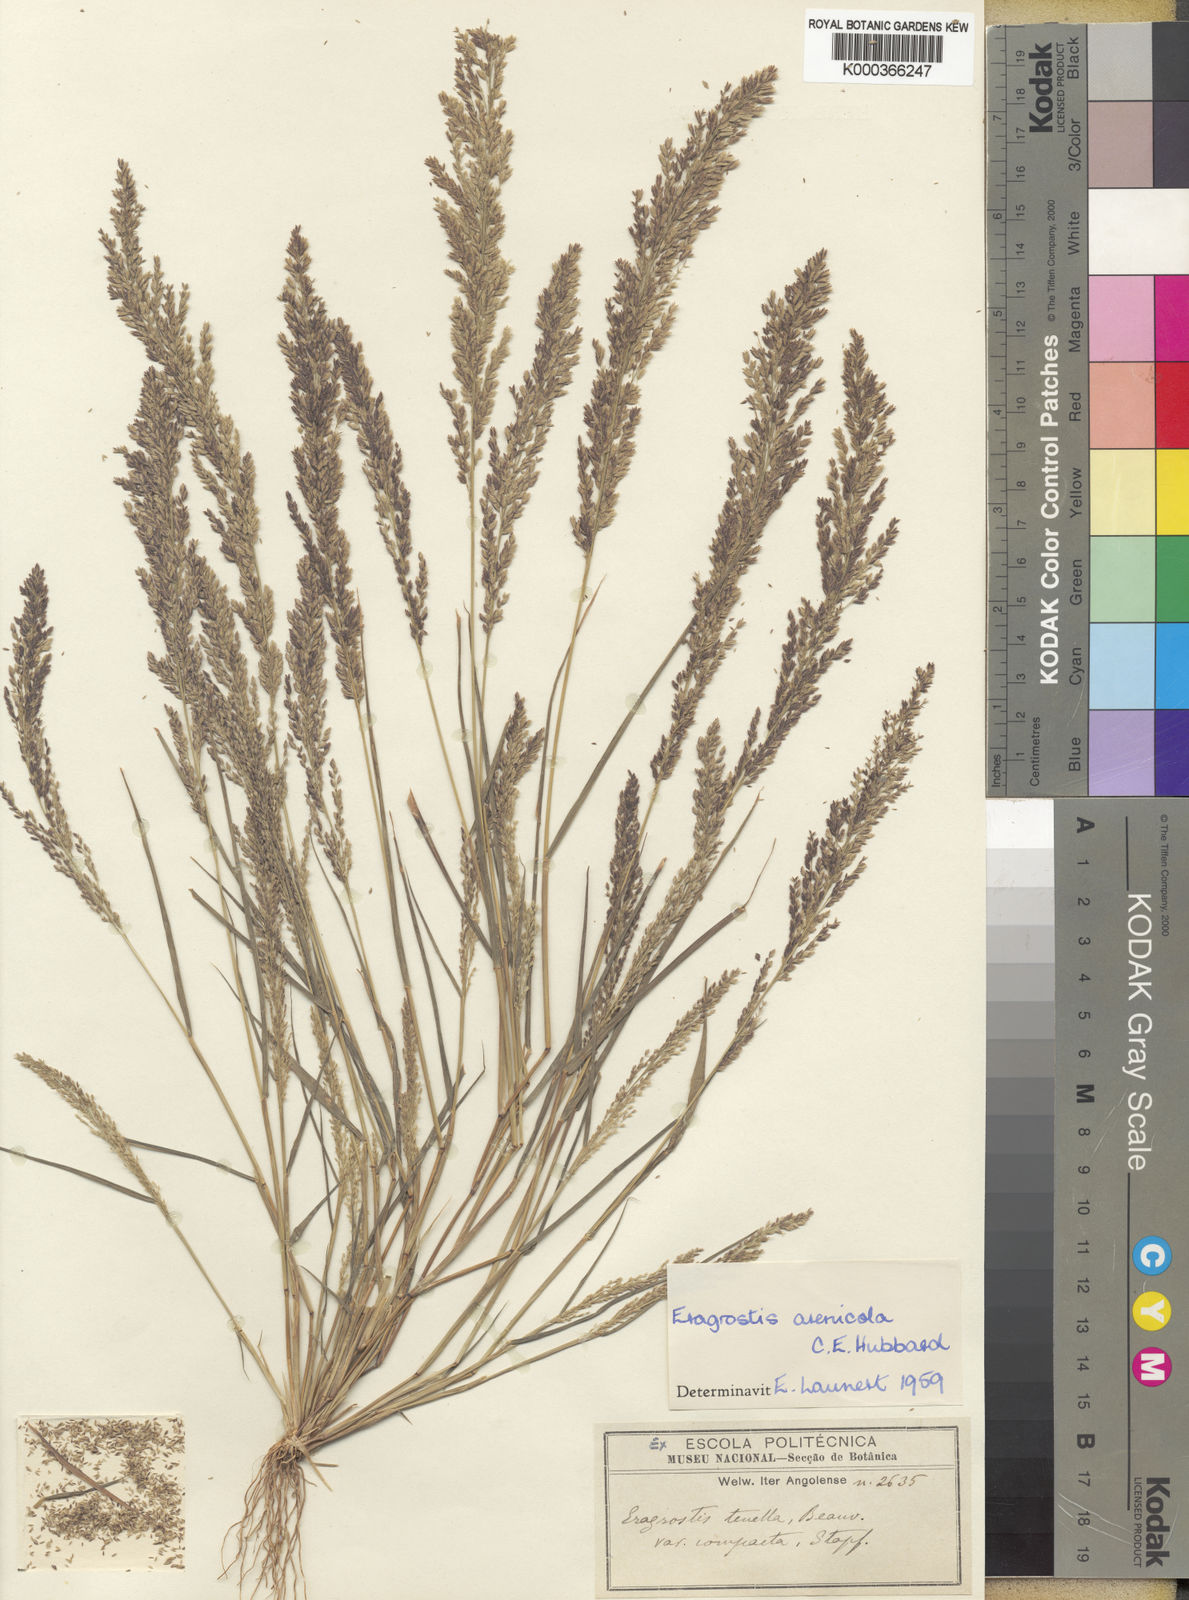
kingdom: Plantae
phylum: Tracheophyta
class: Liliopsida
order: Poales
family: Poaceae
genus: Eragrostis
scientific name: Eragrostis arenicola
